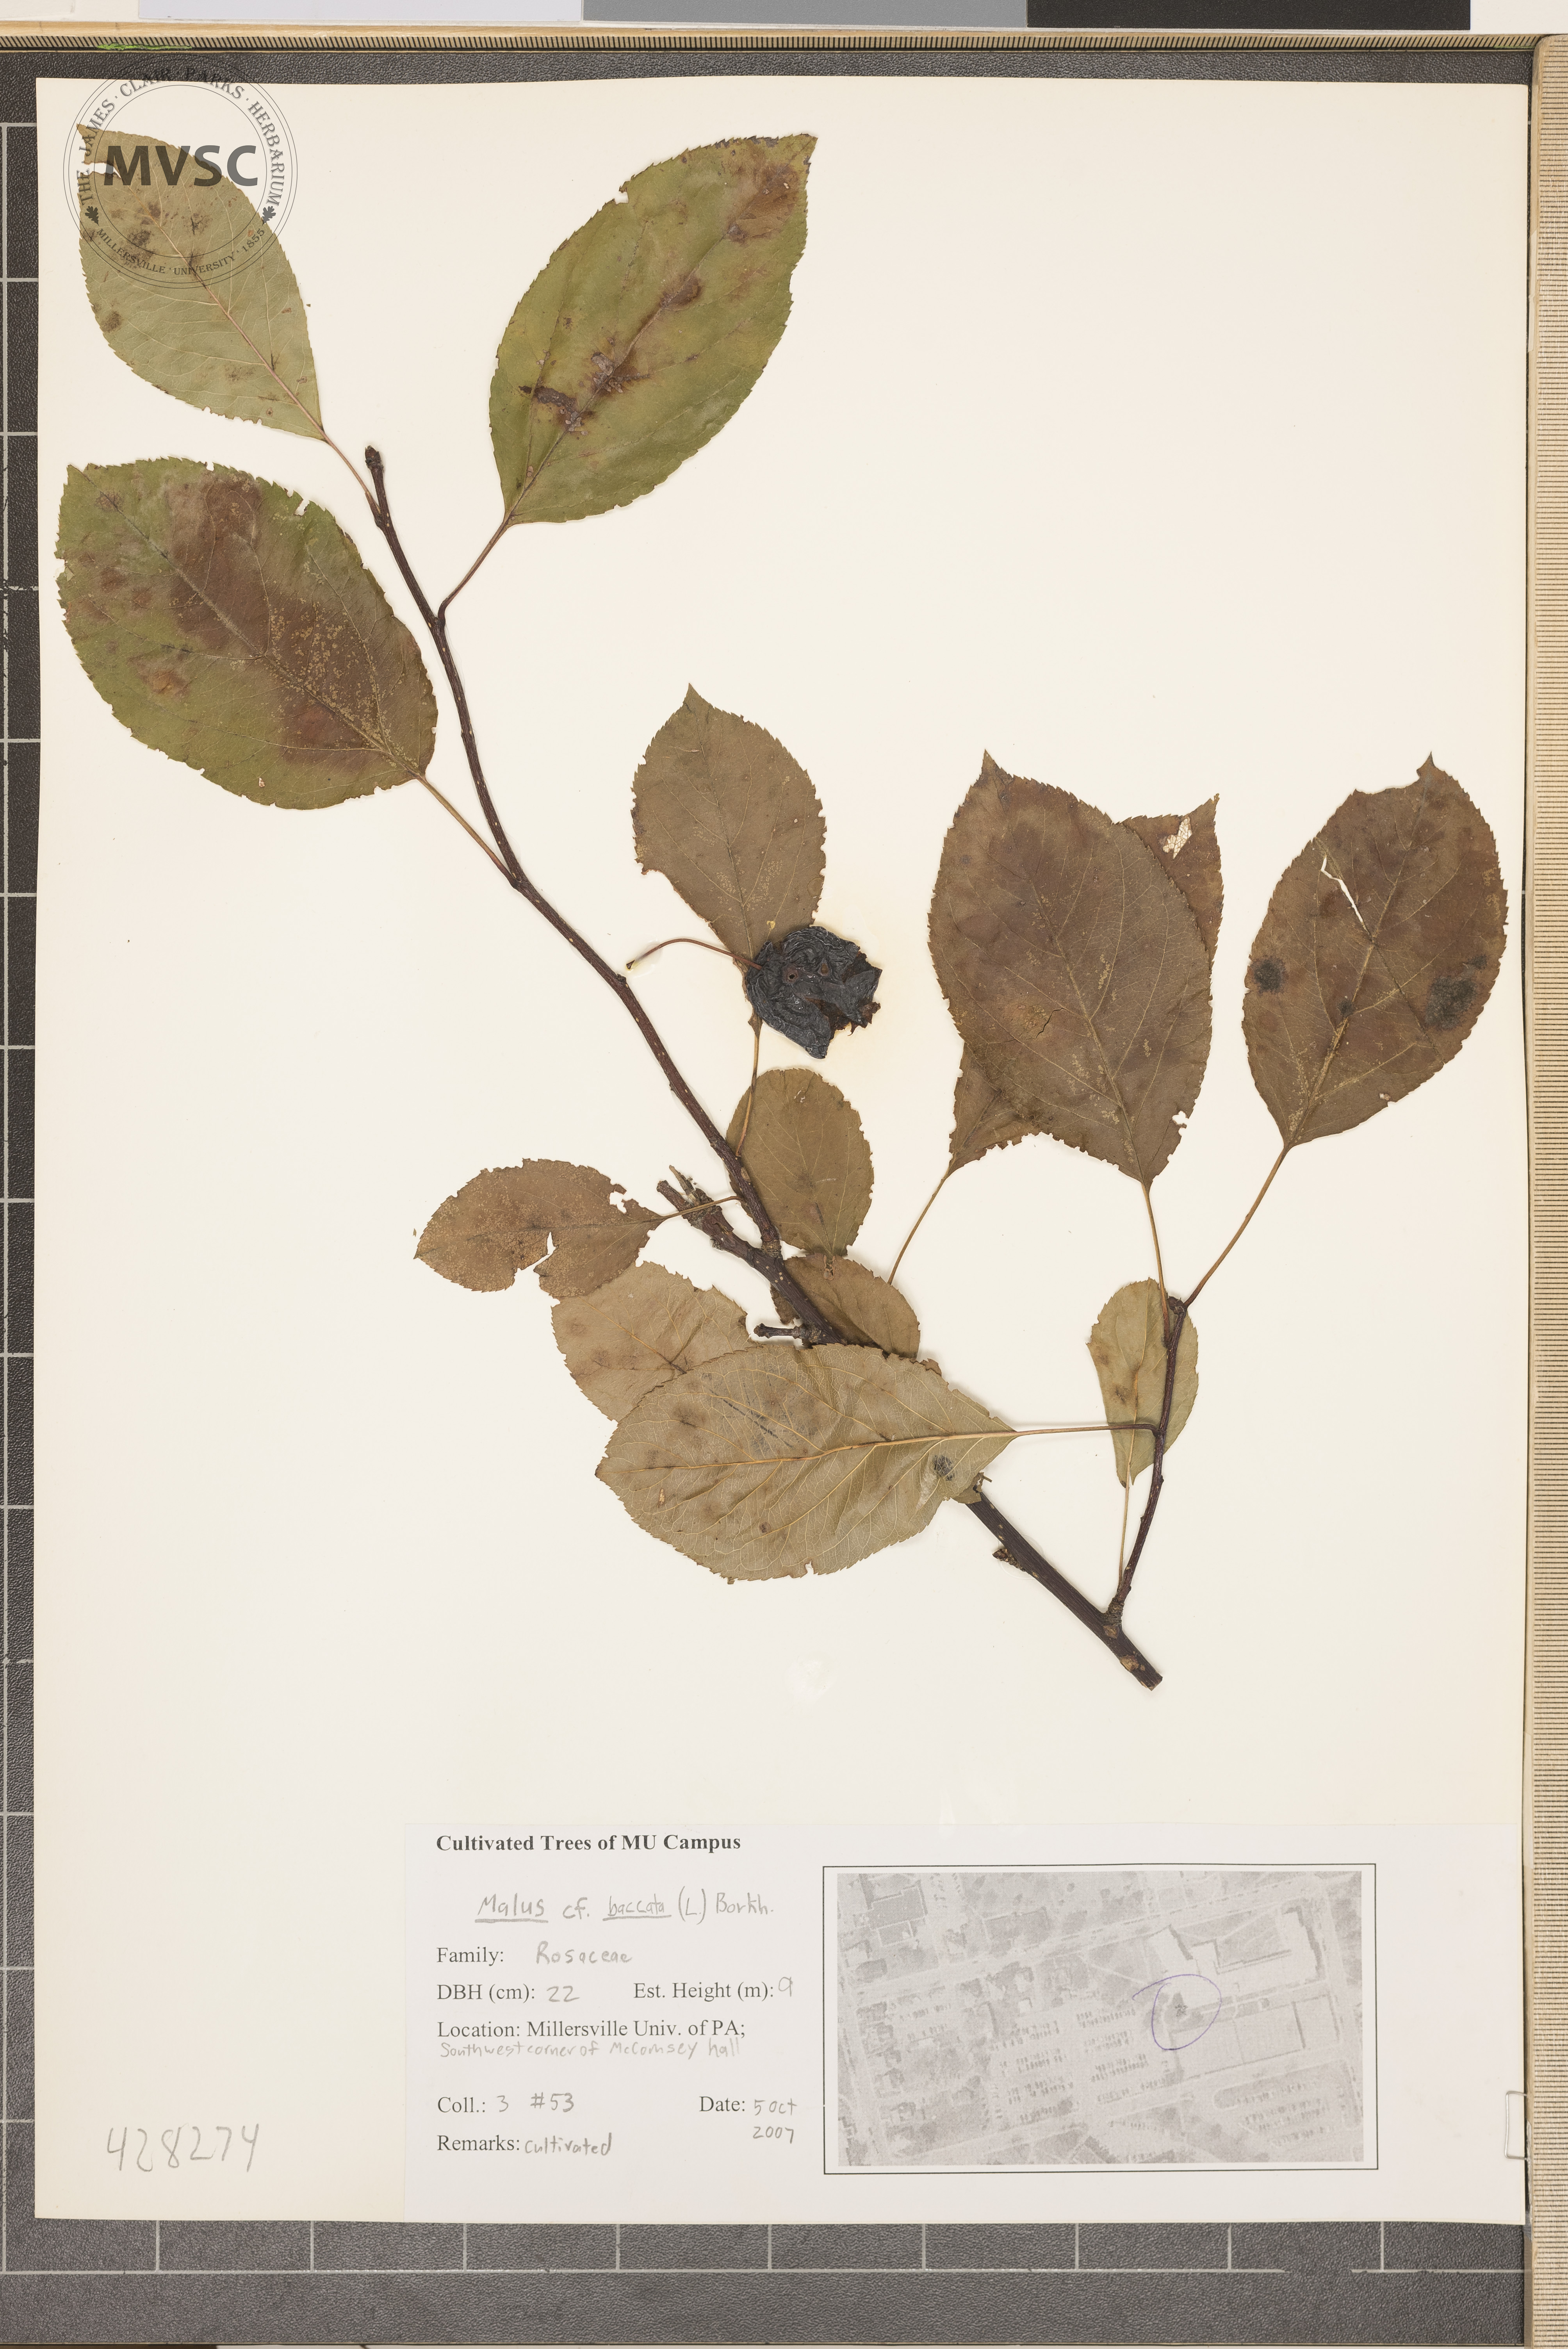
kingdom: Plantae
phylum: Tracheophyta
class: Magnoliopsida
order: Rosales
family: Rosaceae
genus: Malus
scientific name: Malus baccata
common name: Siberian crabapple
